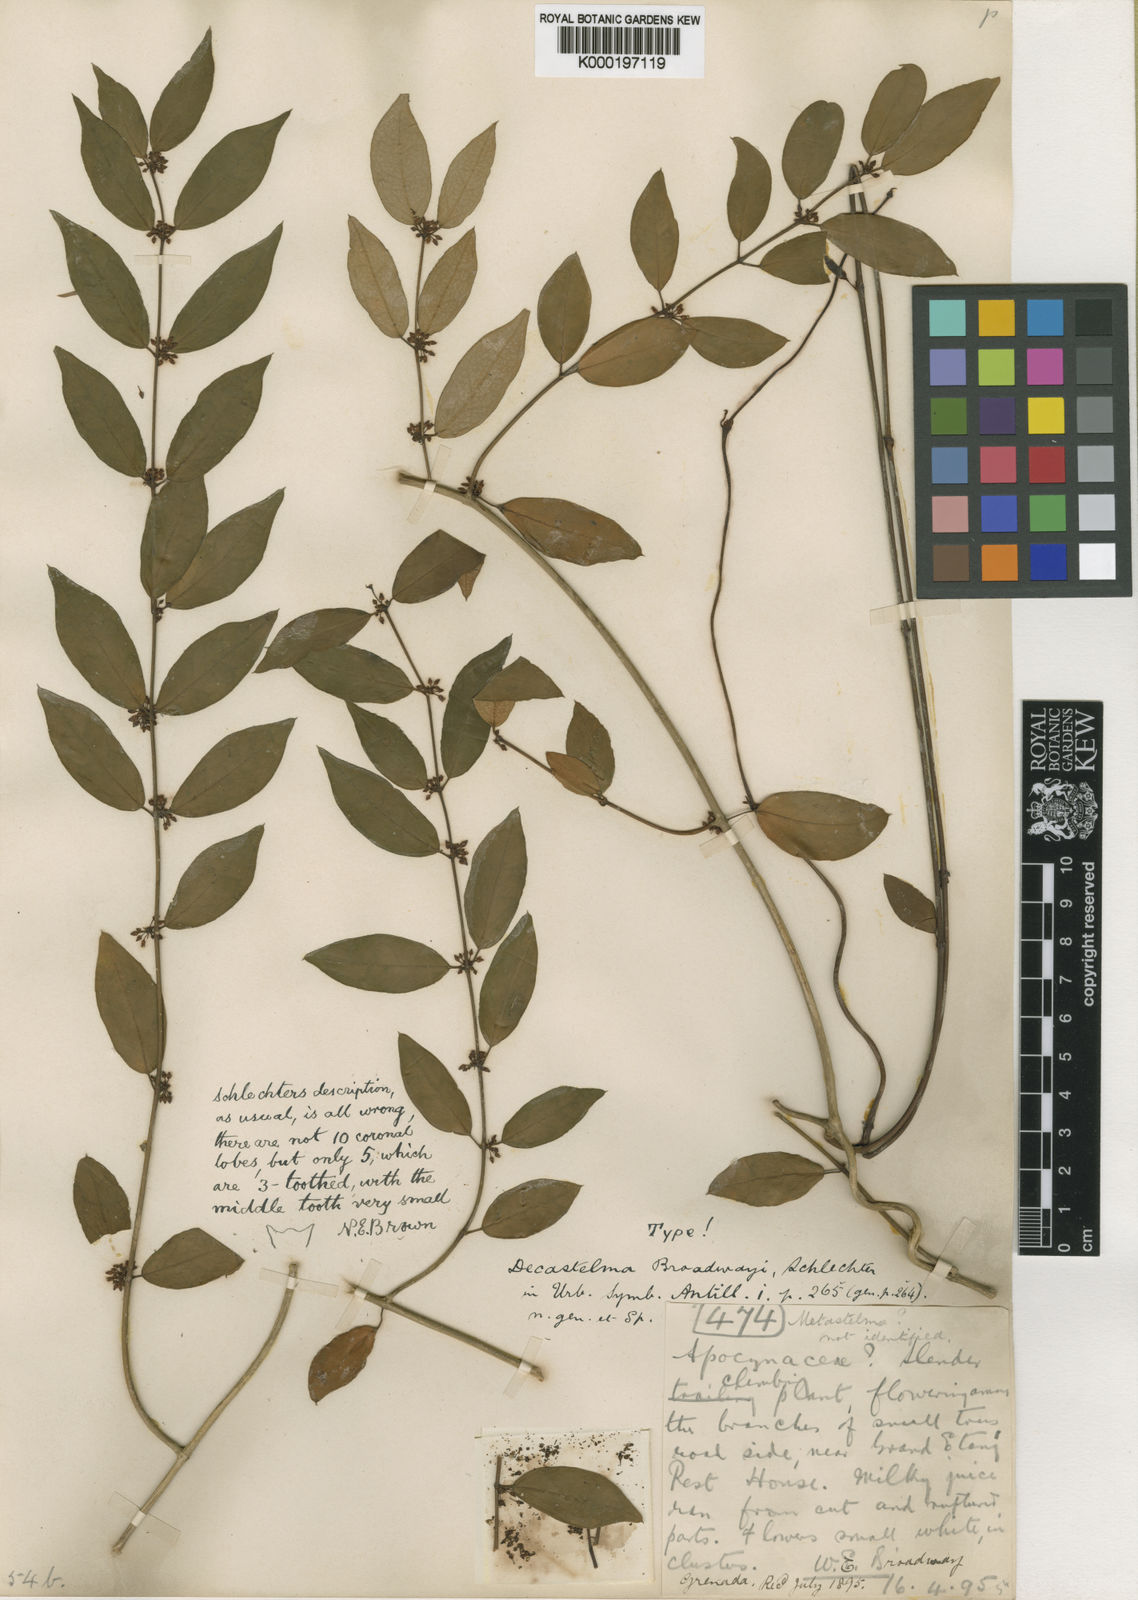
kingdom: Plantae
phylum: Tracheophyta
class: Magnoliopsida
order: Gentianales
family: Apocynaceae
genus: Metastelma
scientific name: Metastelma broadwayi
